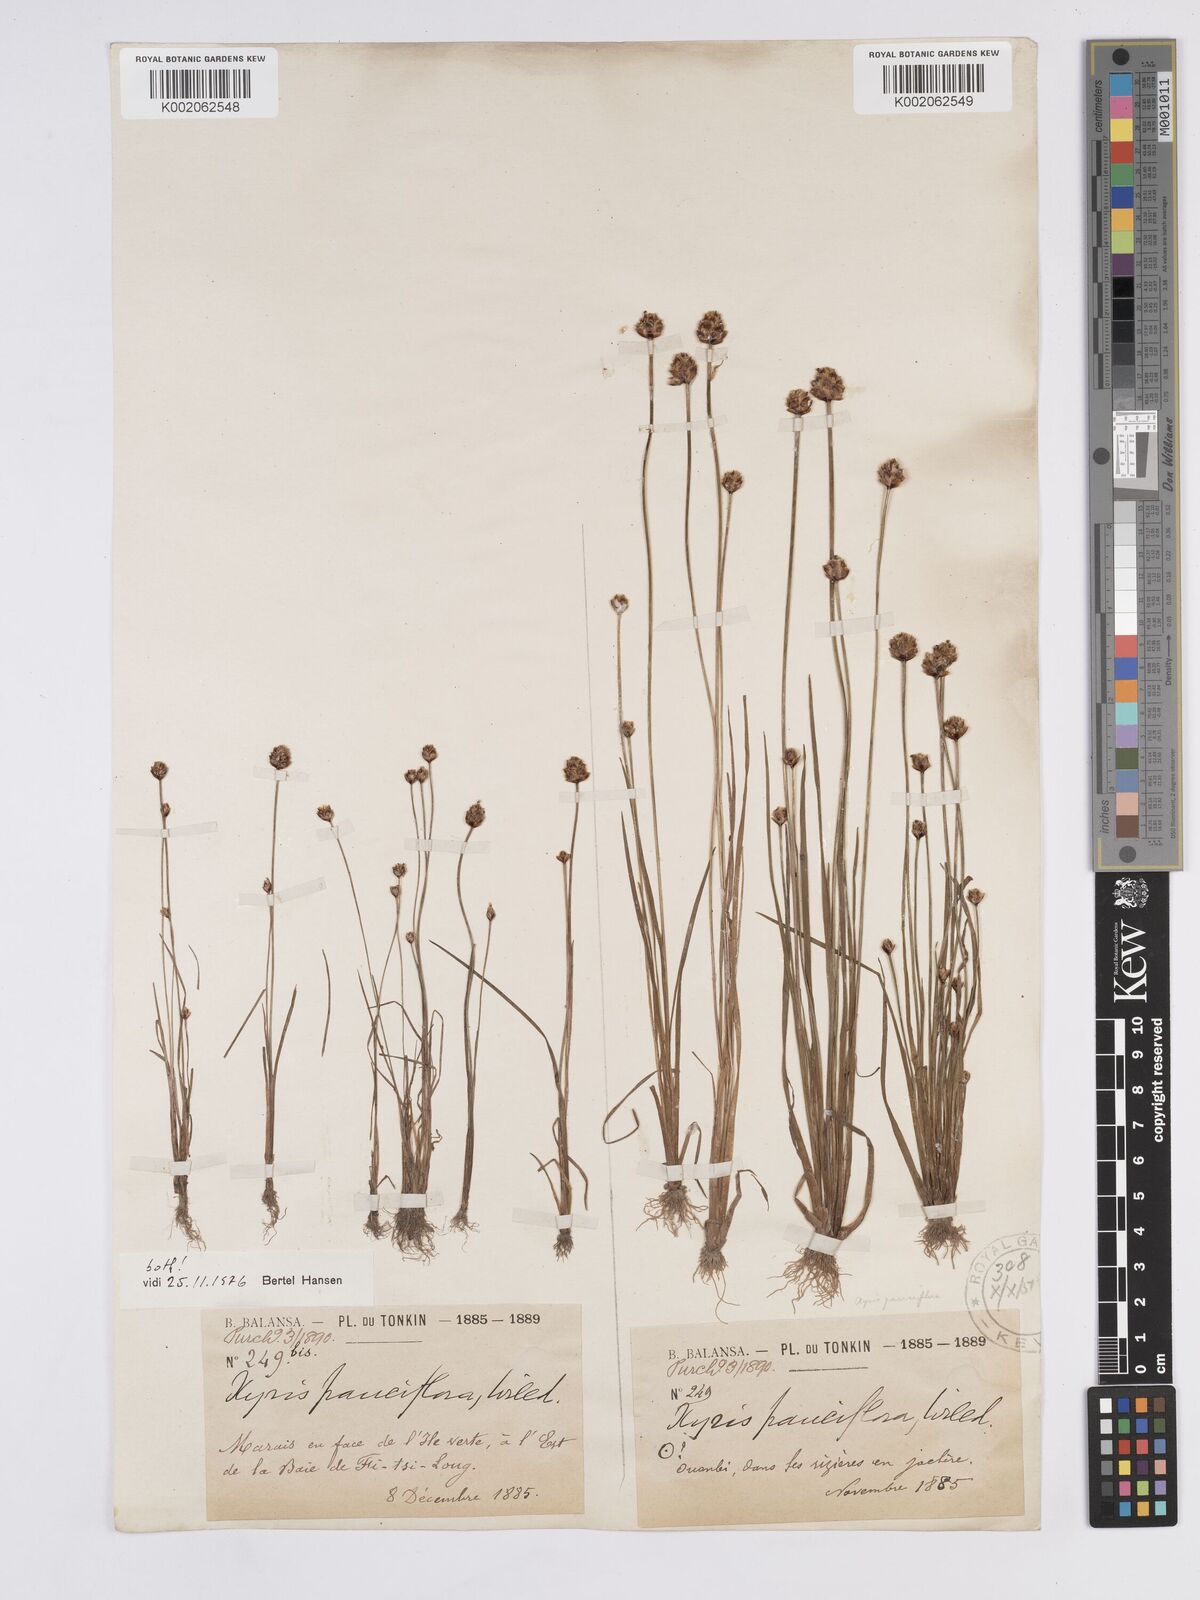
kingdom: Plantae
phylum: Tracheophyta
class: Liliopsida
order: Poales
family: Xyridaceae
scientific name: Xyridaceae
